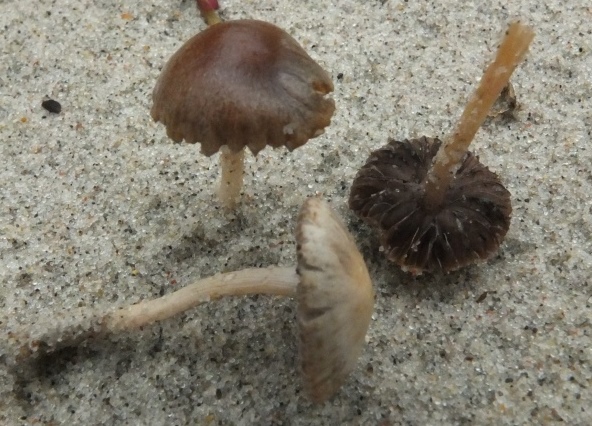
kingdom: Fungi
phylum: Basidiomycota
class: Agaricomycetes
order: Agaricales
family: Psathyrellaceae
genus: Psathyrella
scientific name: Psathyrella ammophila
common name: klit-mørkhat
